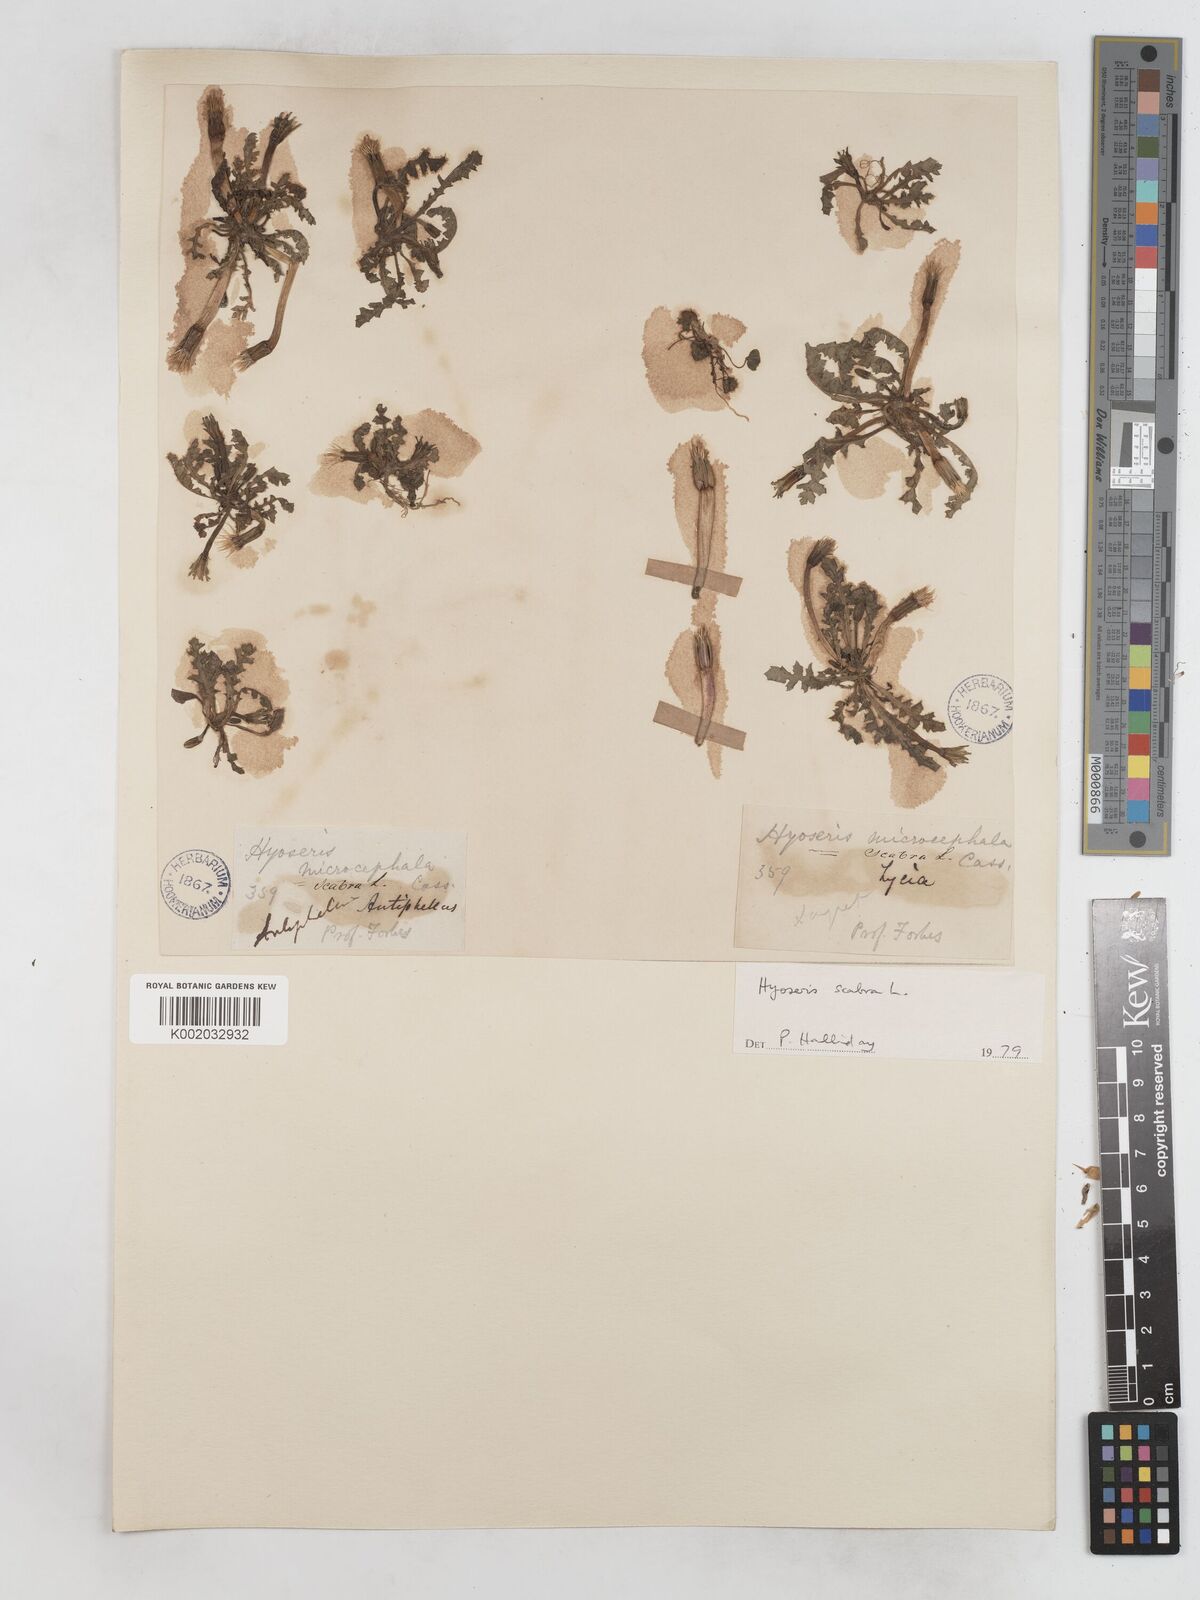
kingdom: Plantae
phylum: Tracheophyta
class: Magnoliopsida
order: Asterales
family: Asteraceae
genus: Hyoseris
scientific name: Hyoseris scabra
